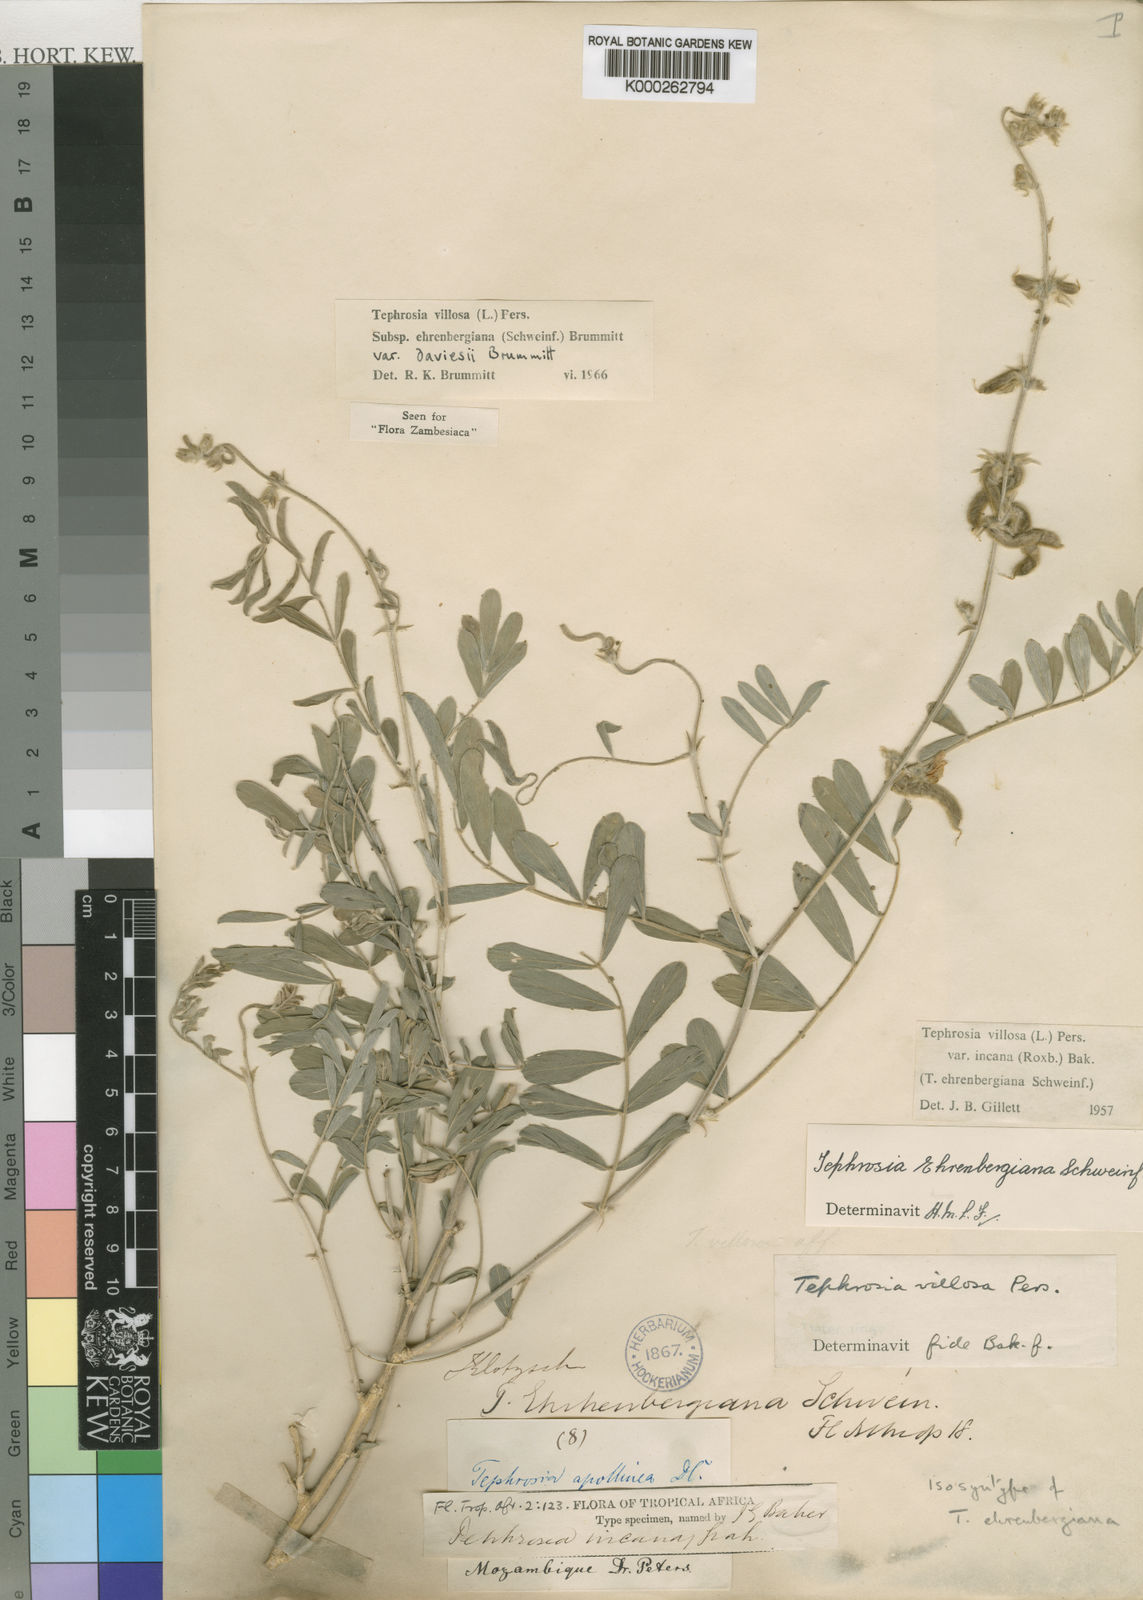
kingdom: Plantae
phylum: Tracheophyta
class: Magnoliopsida
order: Fabales
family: Fabaceae
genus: Tephrosia
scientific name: Tephrosia villosa
